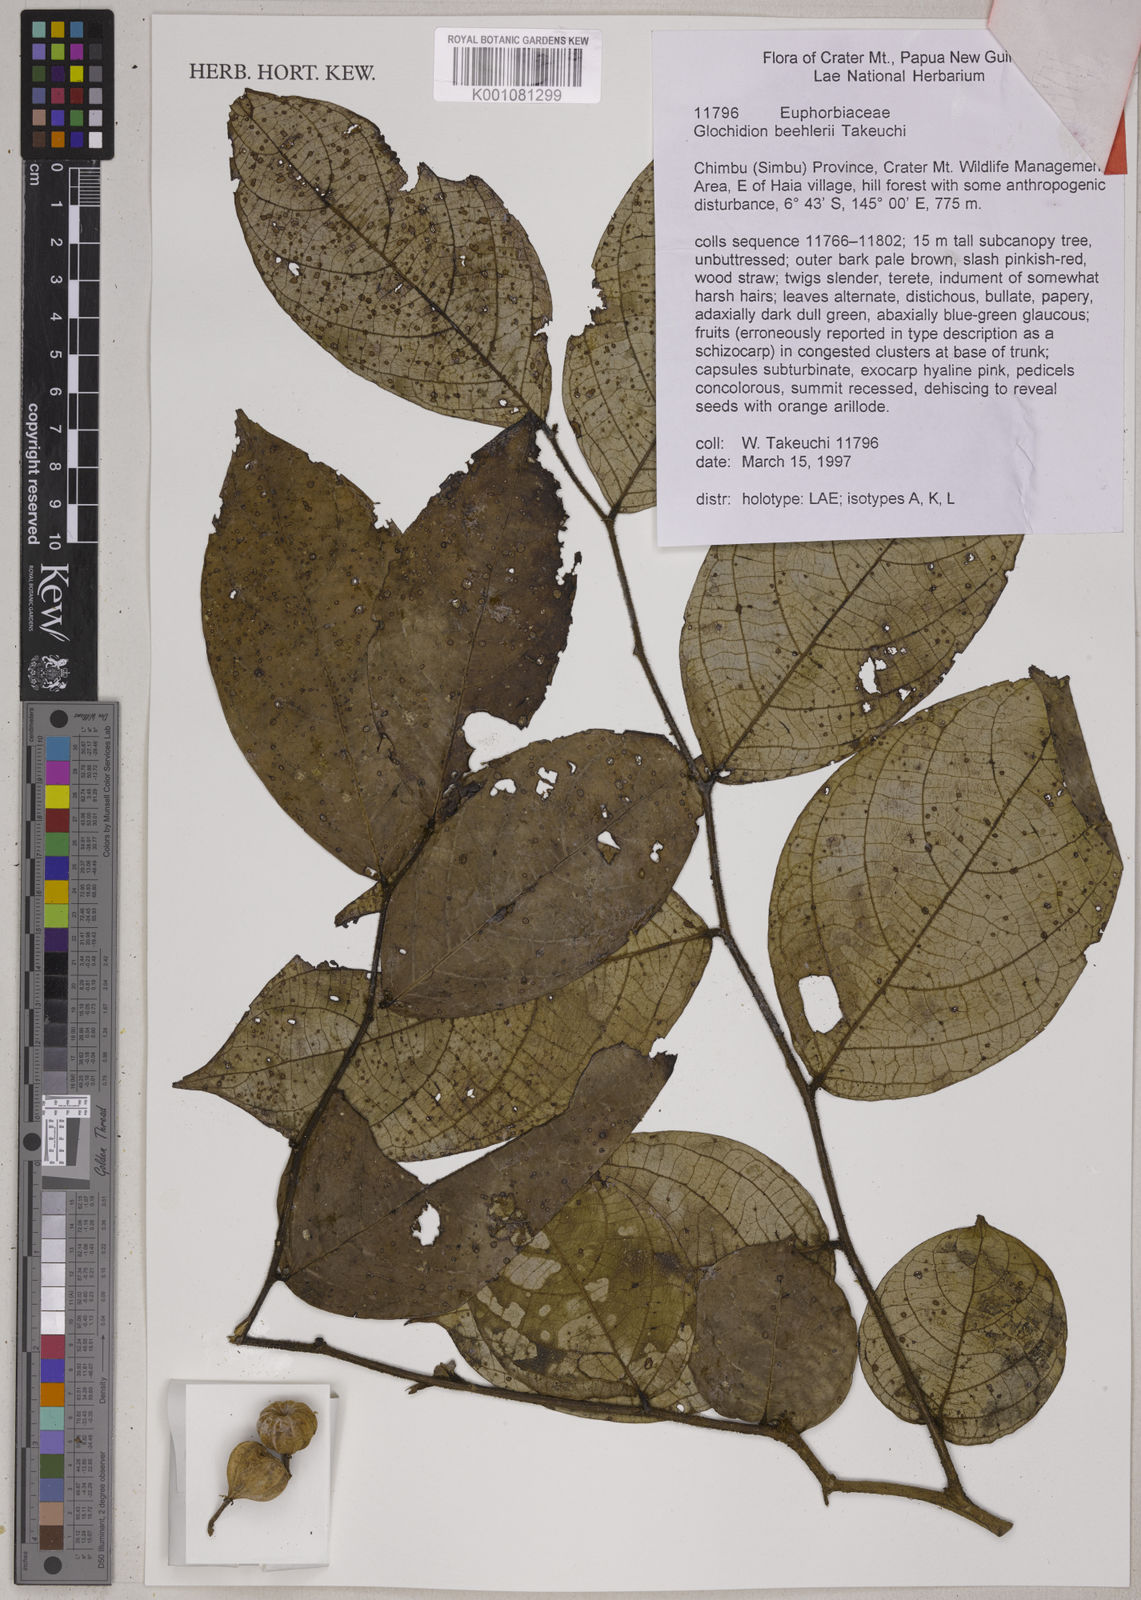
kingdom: Plantae
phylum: Tracheophyta
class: Magnoliopsida
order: Malpighiales
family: Phyllanthaceae
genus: Glochidion
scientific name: Glochidion beehleri
